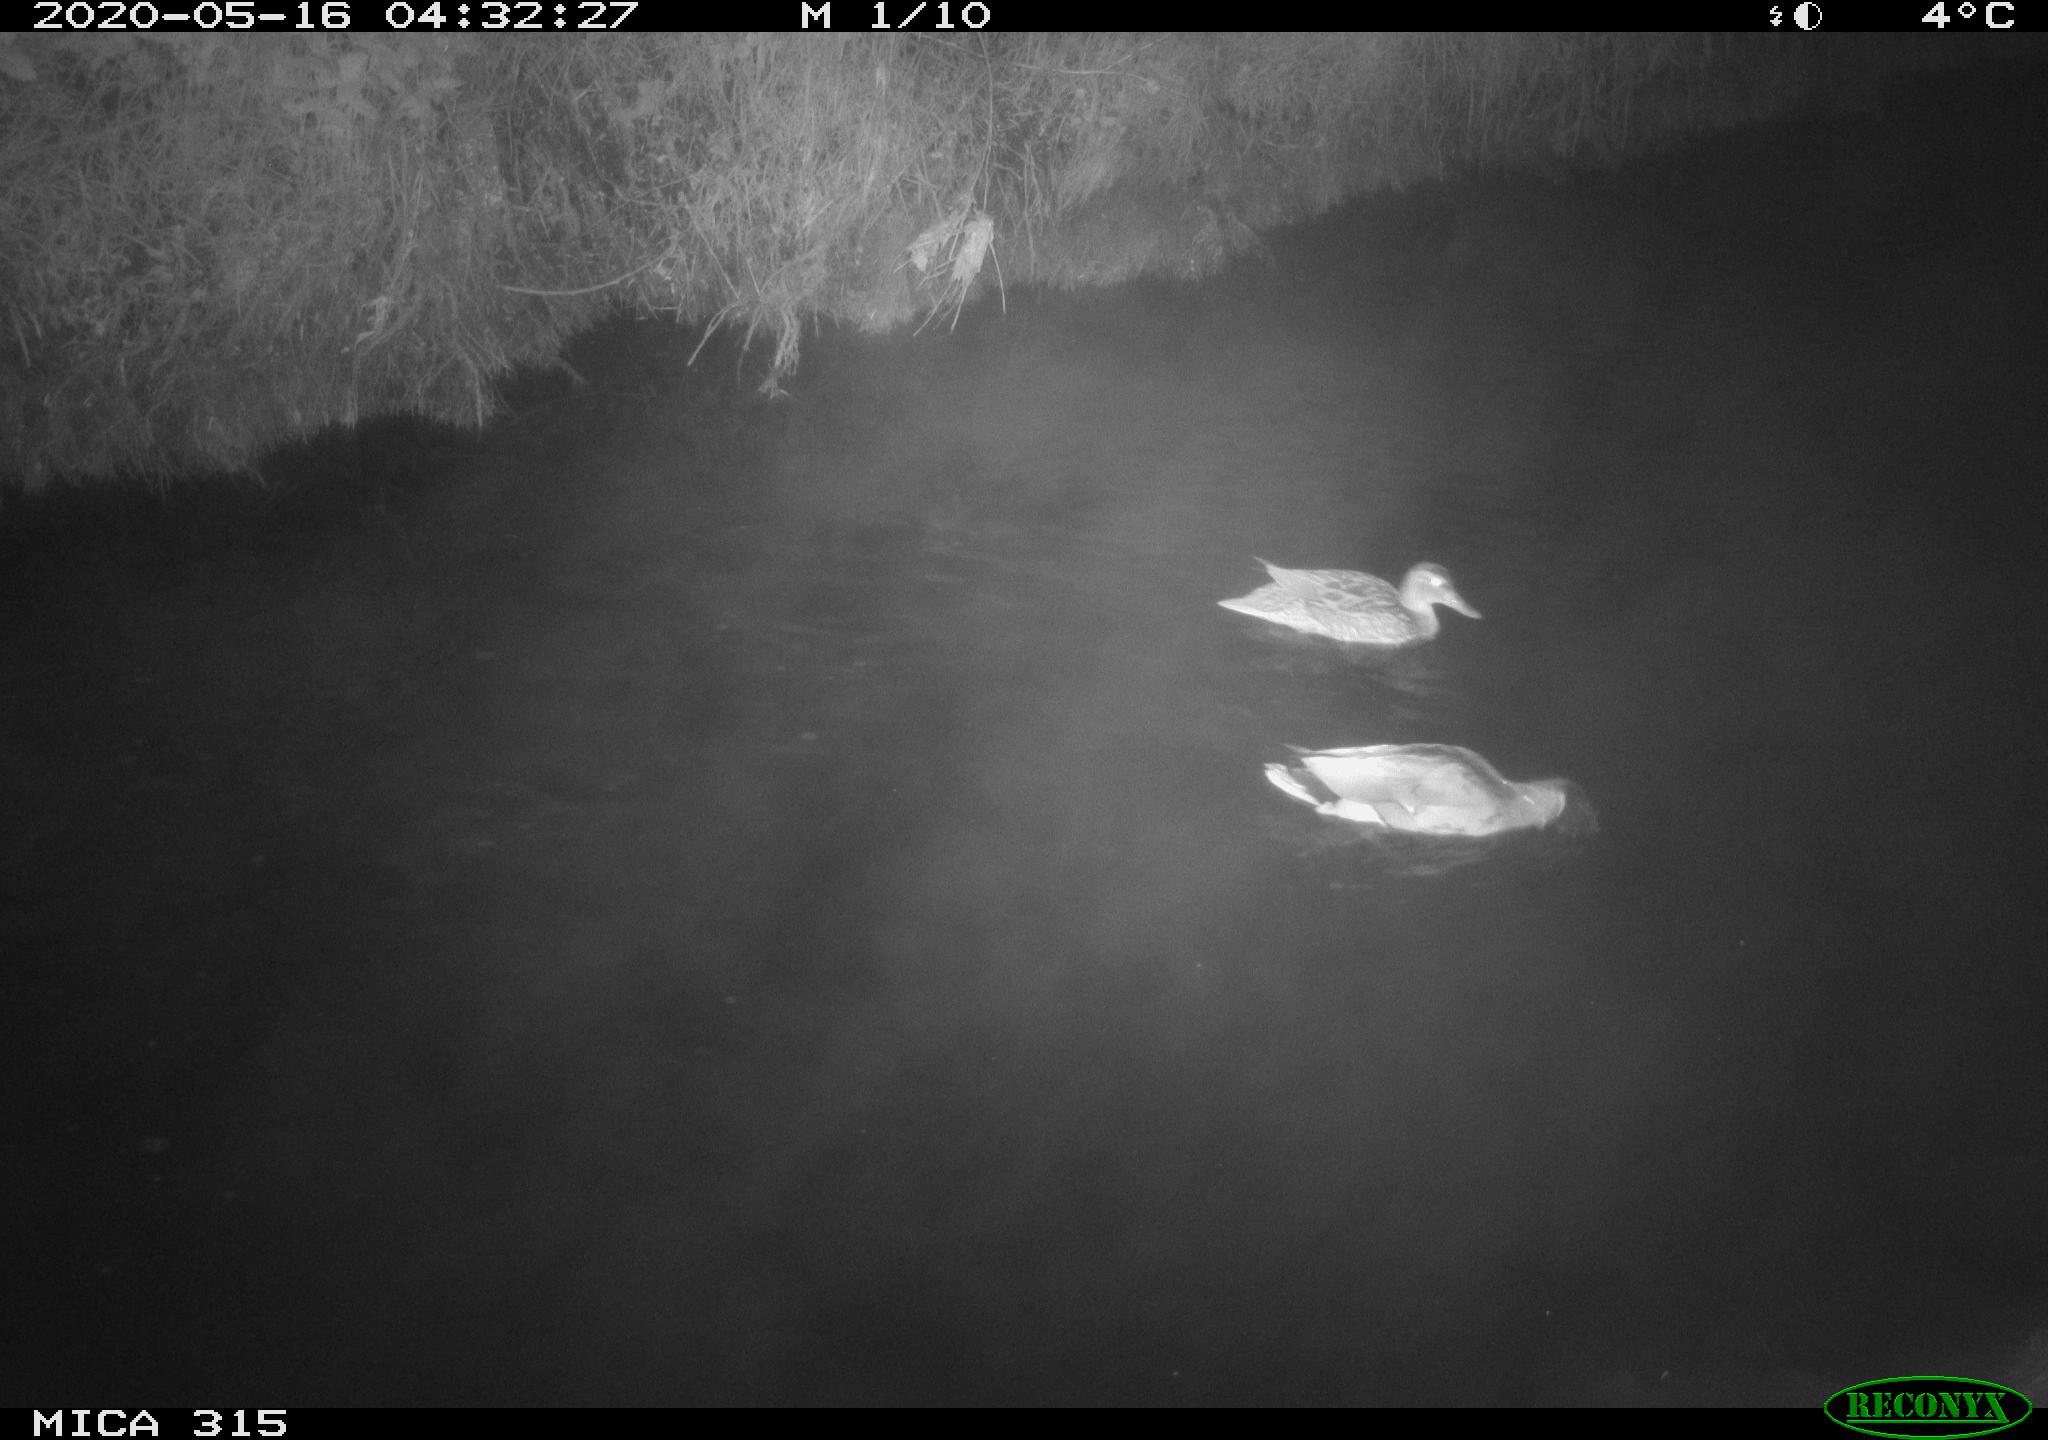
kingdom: Animalia
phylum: Chordata
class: Aves
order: Anseriformes
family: Anatidae
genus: Anas
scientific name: Anas platyrhynchos
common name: Mallard
